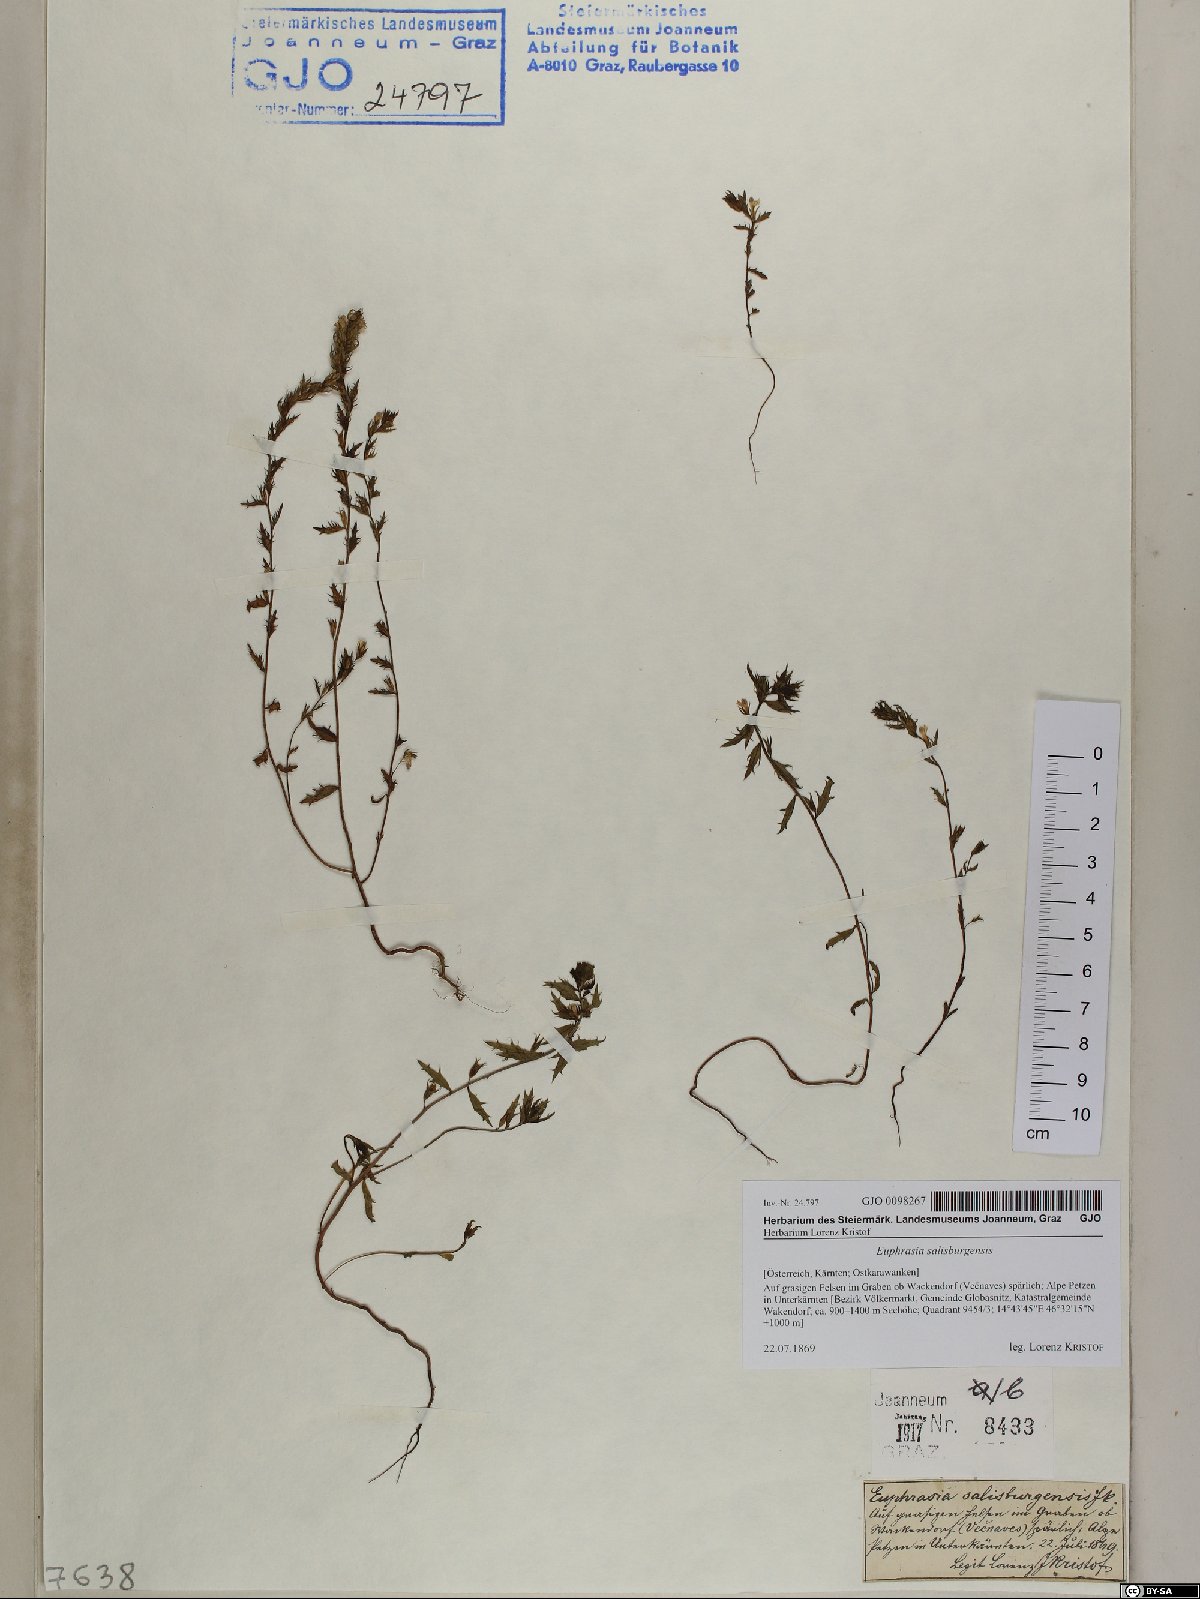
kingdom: Plantae
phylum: Tracheophyta
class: Magnoliopsida
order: Lamiales
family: Orobanchaceae
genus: Euphrasia
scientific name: Euphrasia salisburgensis
